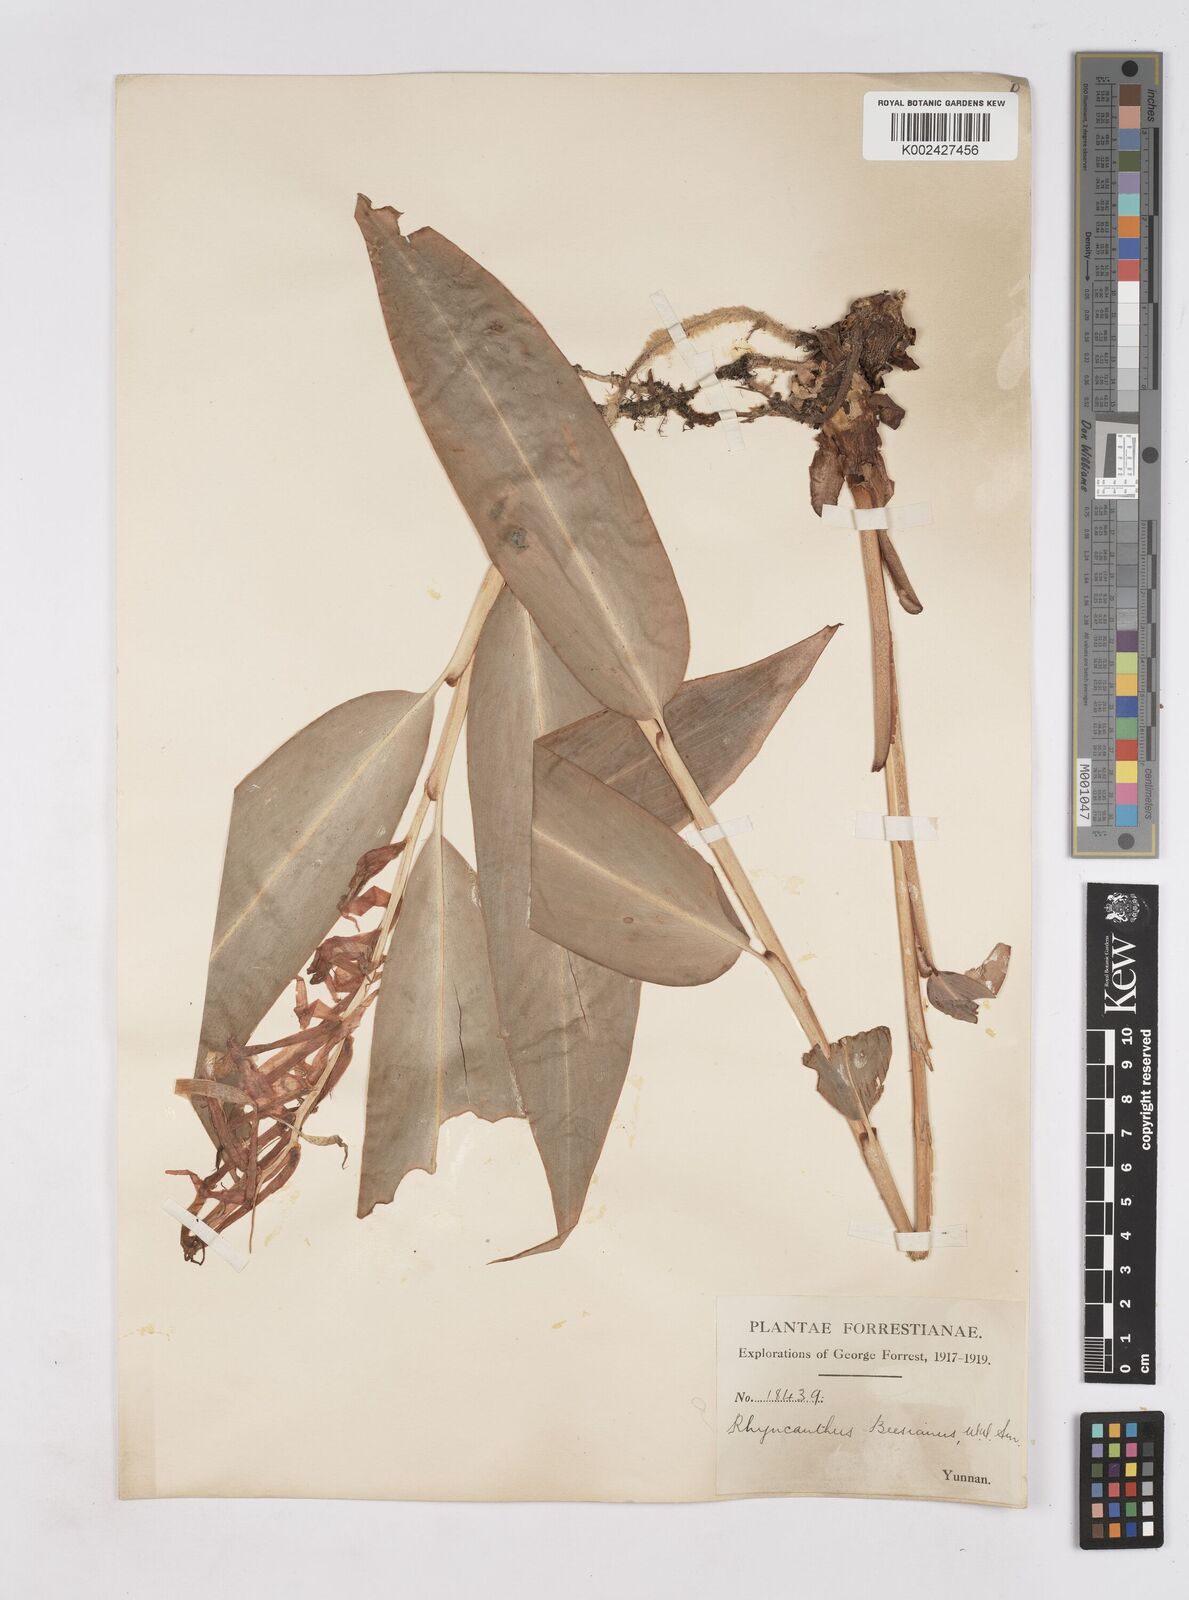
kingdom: Plantae
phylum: Tracheophyta
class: Liliopsida
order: Zingiberales
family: Zingiberaceae
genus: Rhynchanthus
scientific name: Rhynchanthus beesianus
